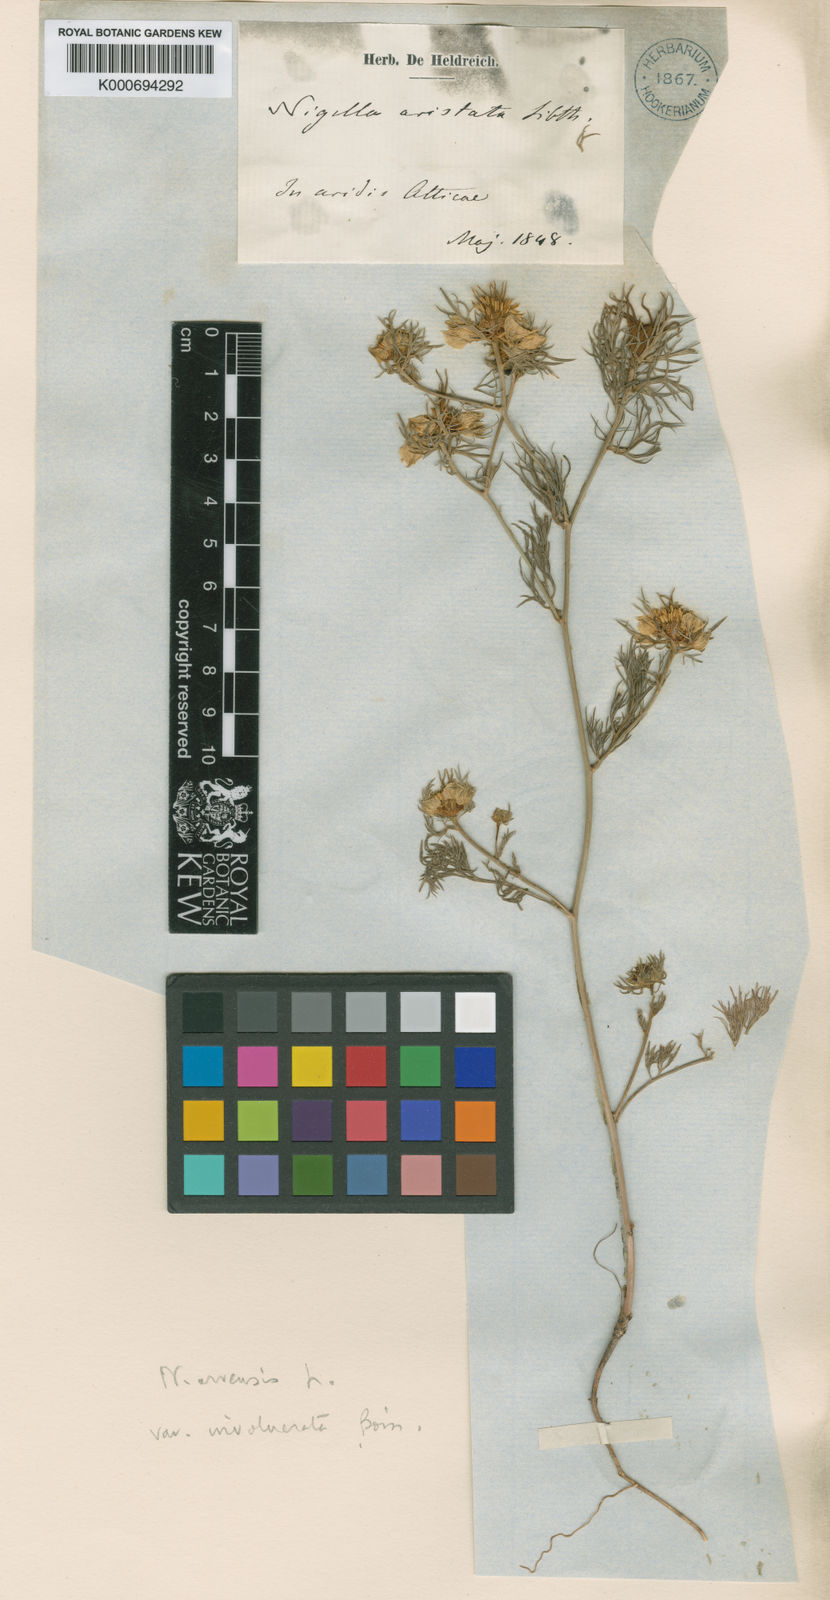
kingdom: Plantae
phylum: Tracheophyta
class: Magnoliopsida
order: Ranunculales
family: Ranunculaceae
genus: Nigella
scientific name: Nigella arvensis
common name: Wild fennel-flower
